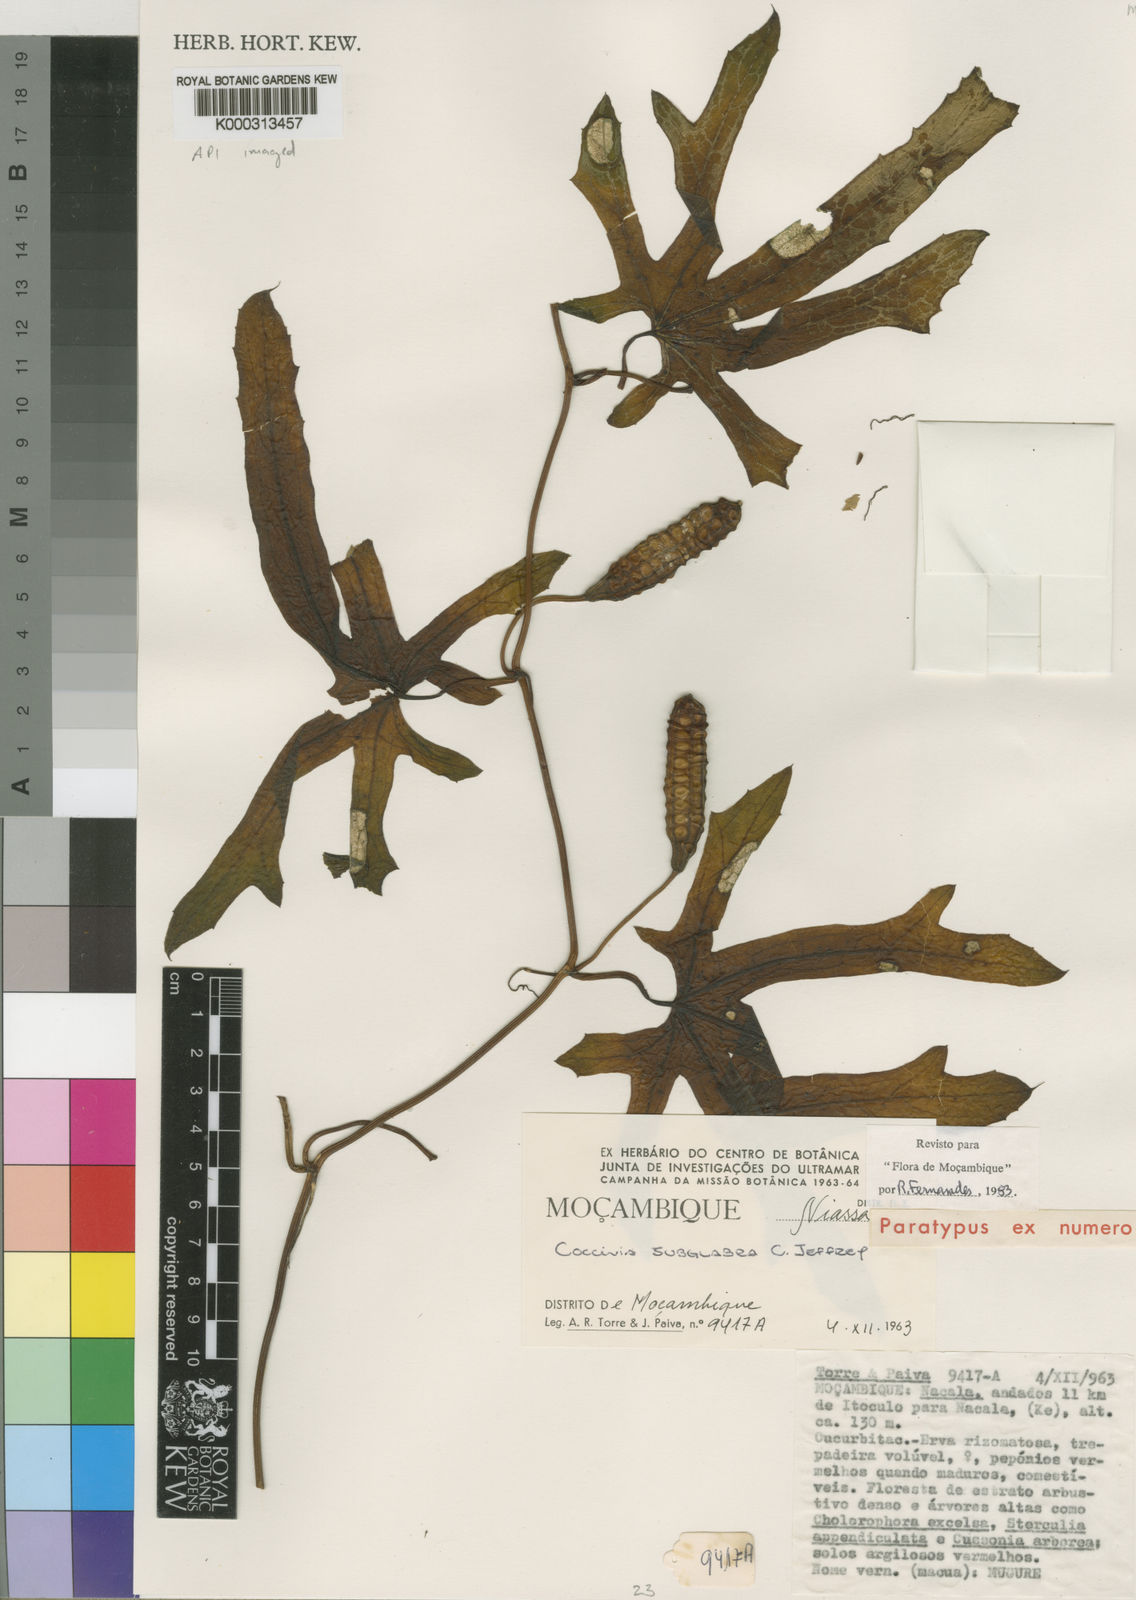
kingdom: Plantae
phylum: Tracheophyta
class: Magnoliopsida
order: Cucurbitales
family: Cucurbitaceae
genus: Coccinia
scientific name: Coccinia senensis
